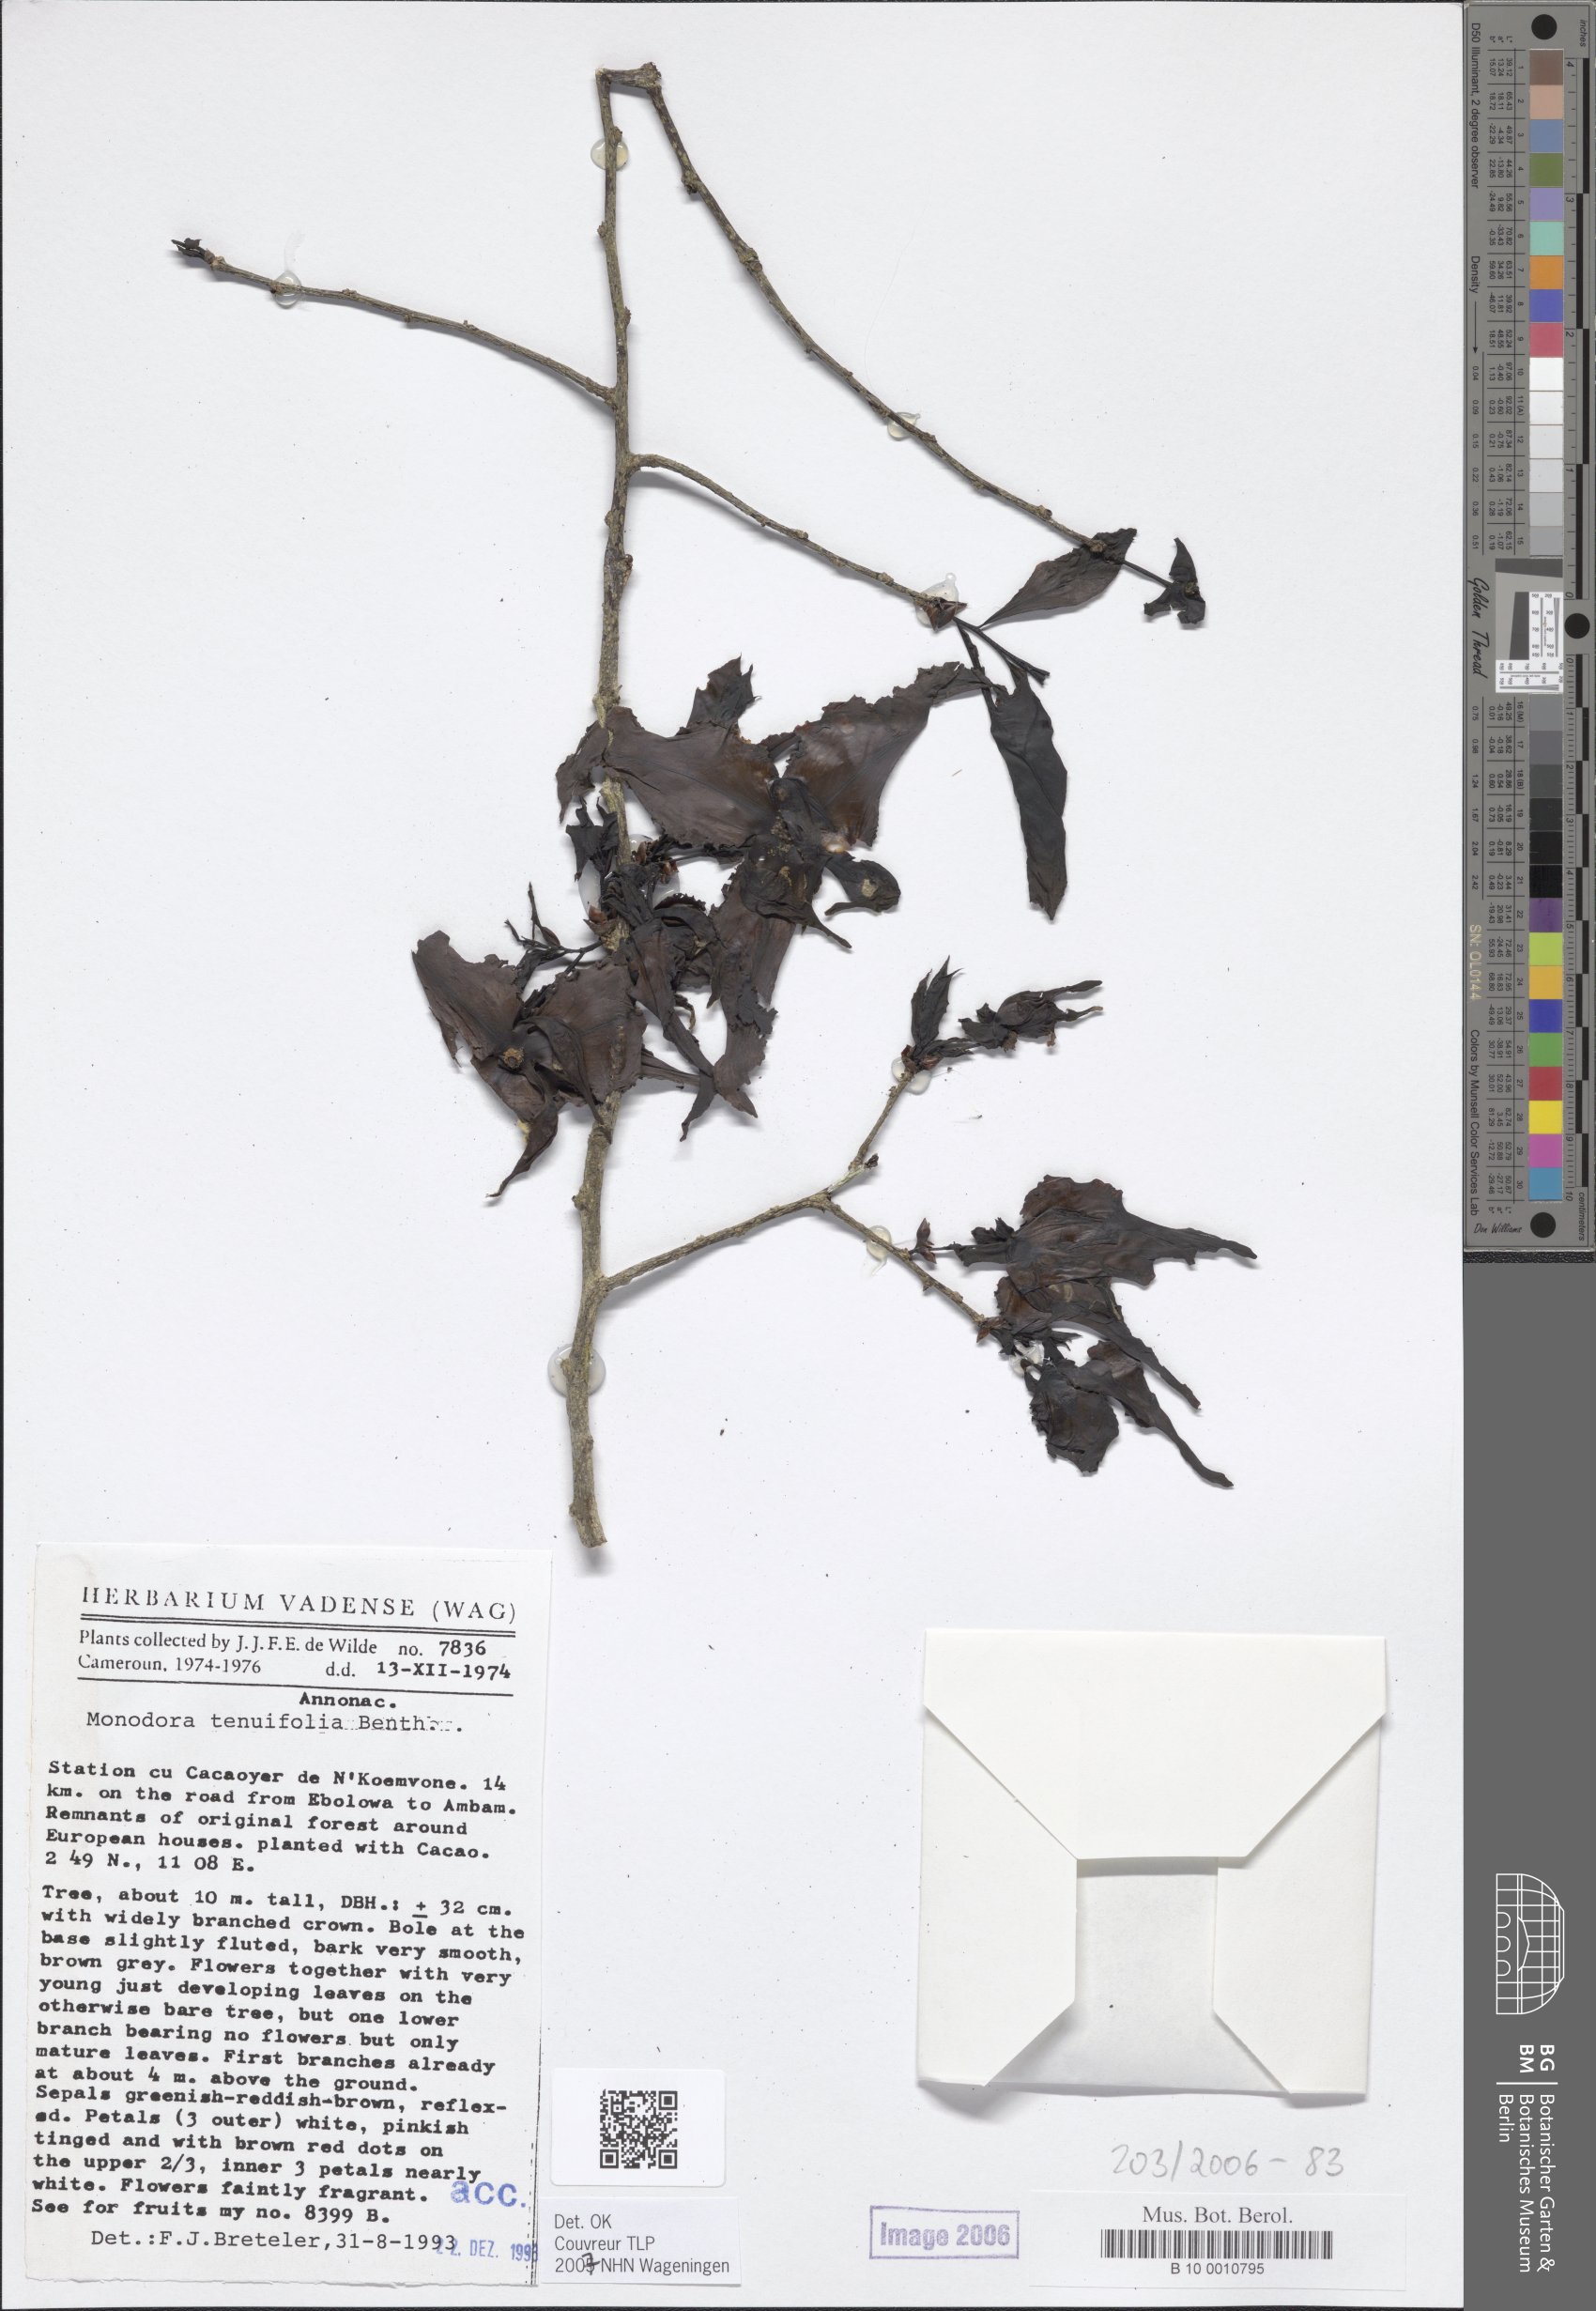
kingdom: Plantae
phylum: Tracheophyta
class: Magnoliopsida
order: Magnoliales
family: Annonaceae
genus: Monodora
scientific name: Monodora tenuifolia
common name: Orchidtree
